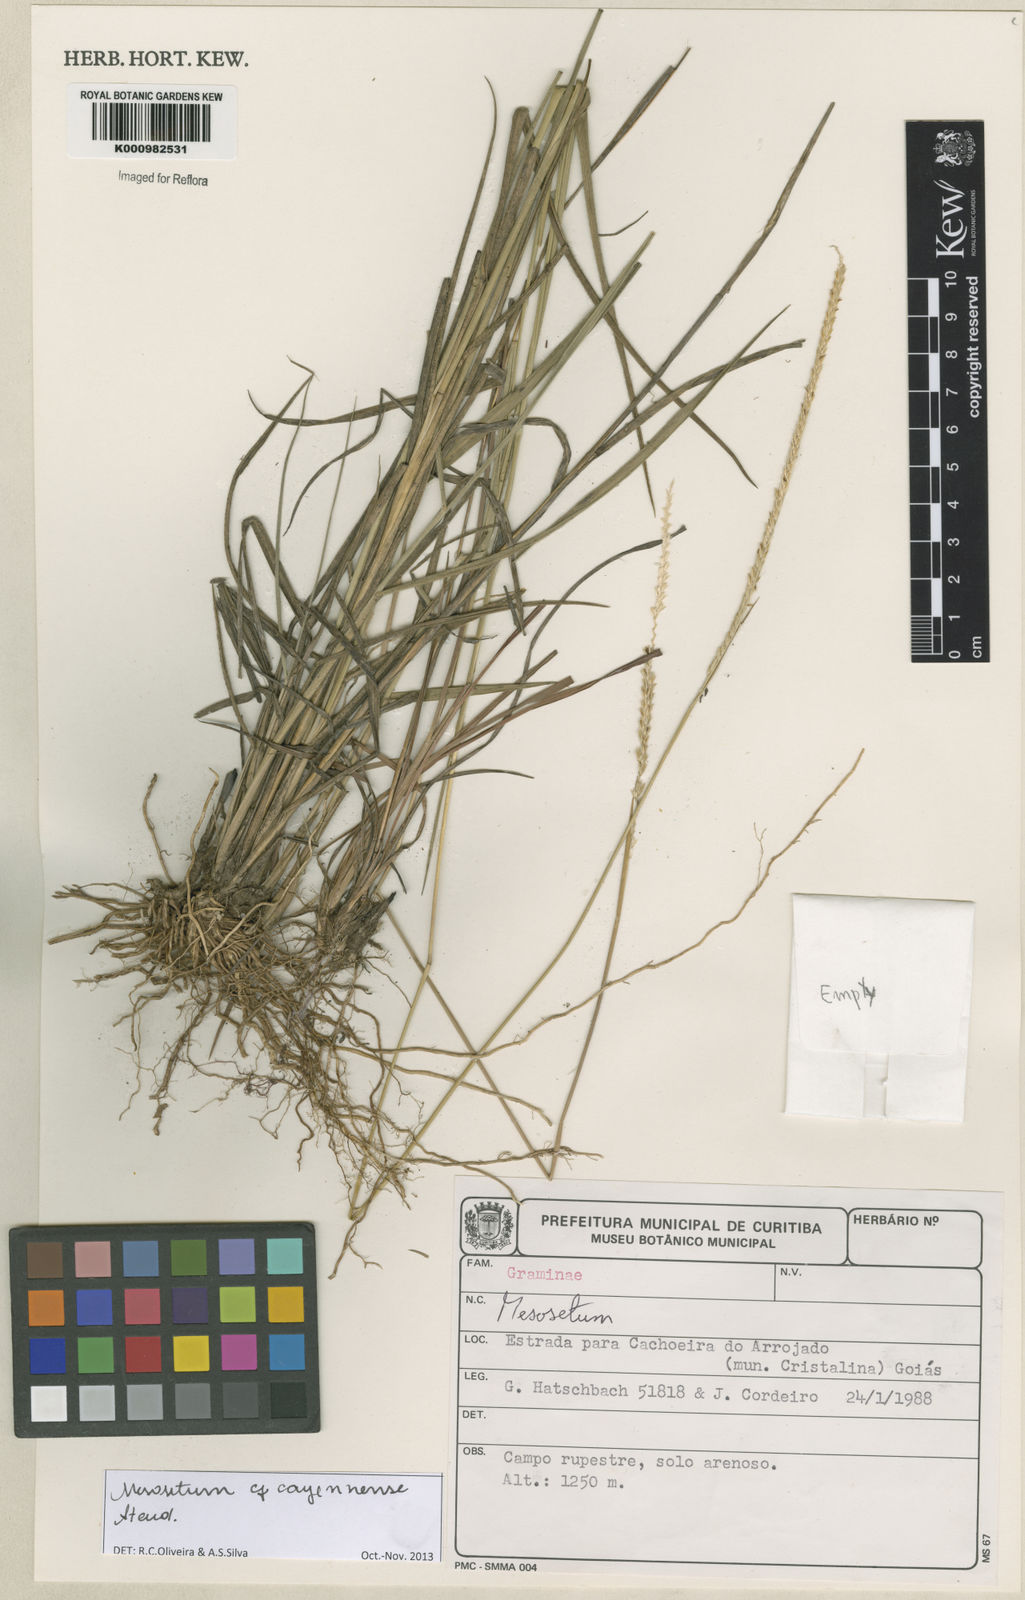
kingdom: Plantae
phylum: Tracheophyta
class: Liliopsida
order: Poales
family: Poaceae
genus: Mesosetum
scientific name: Mesosetum cayennense
